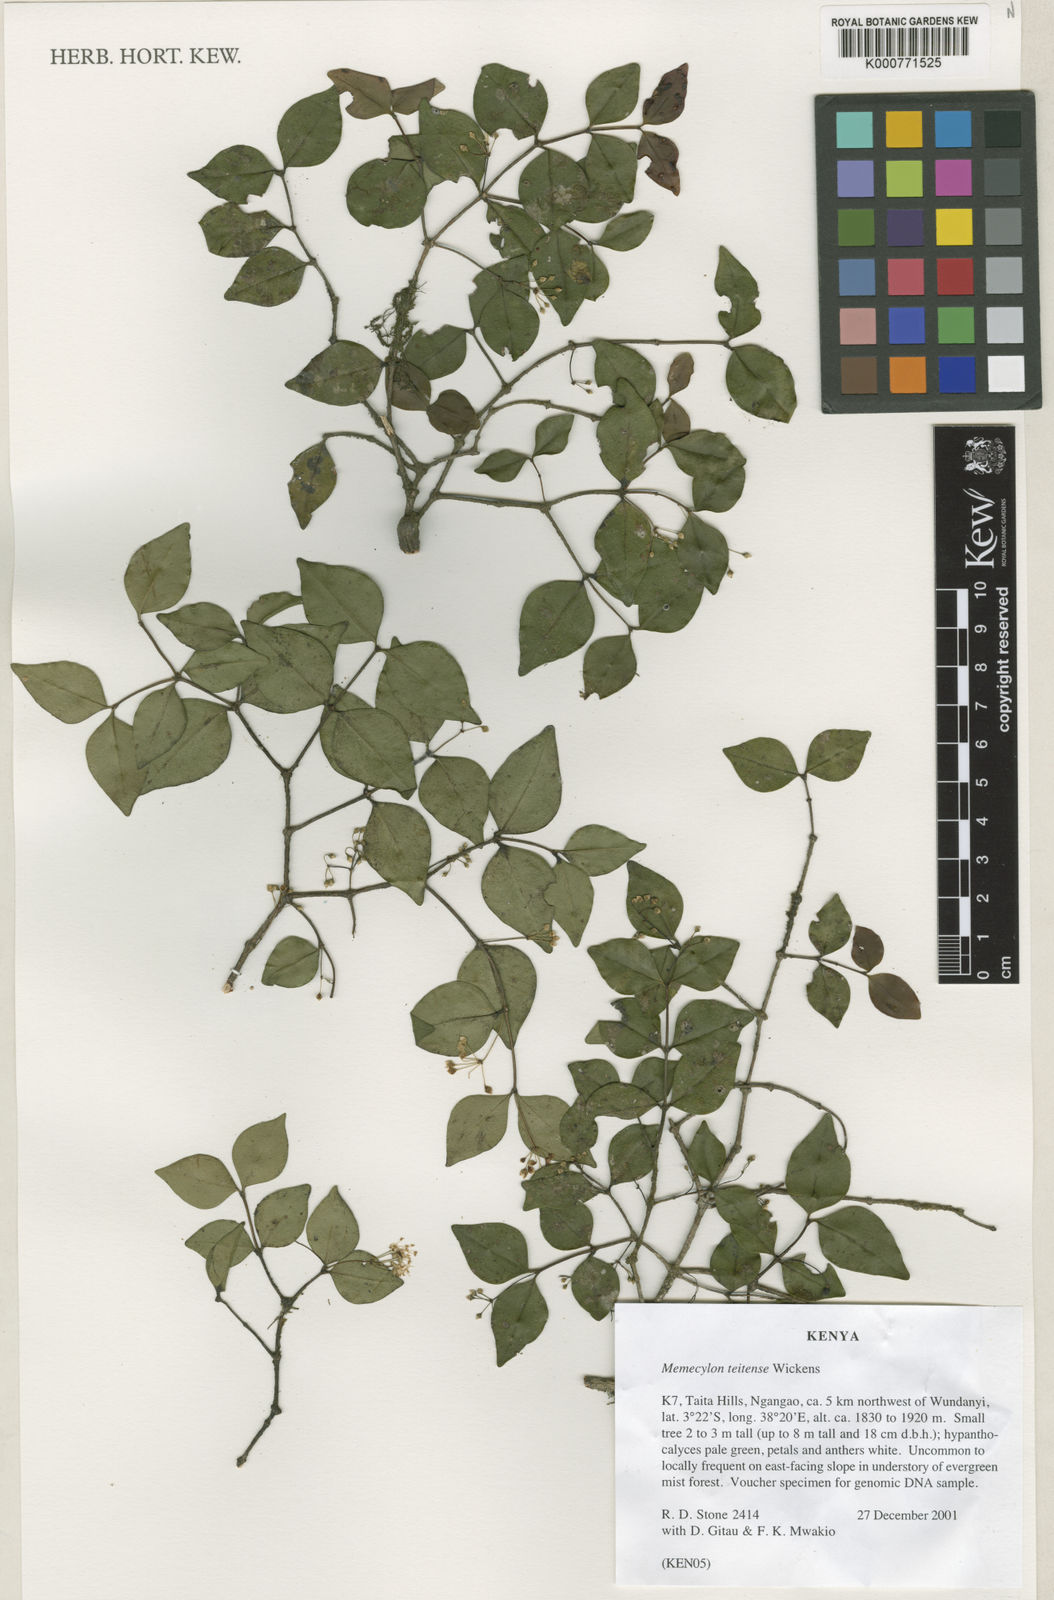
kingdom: Plantae
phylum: Tracheophyta
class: Magnoliopsida
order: Myrtales
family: Melastomataceae
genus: Memecylon
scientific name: Memecylon teitense
